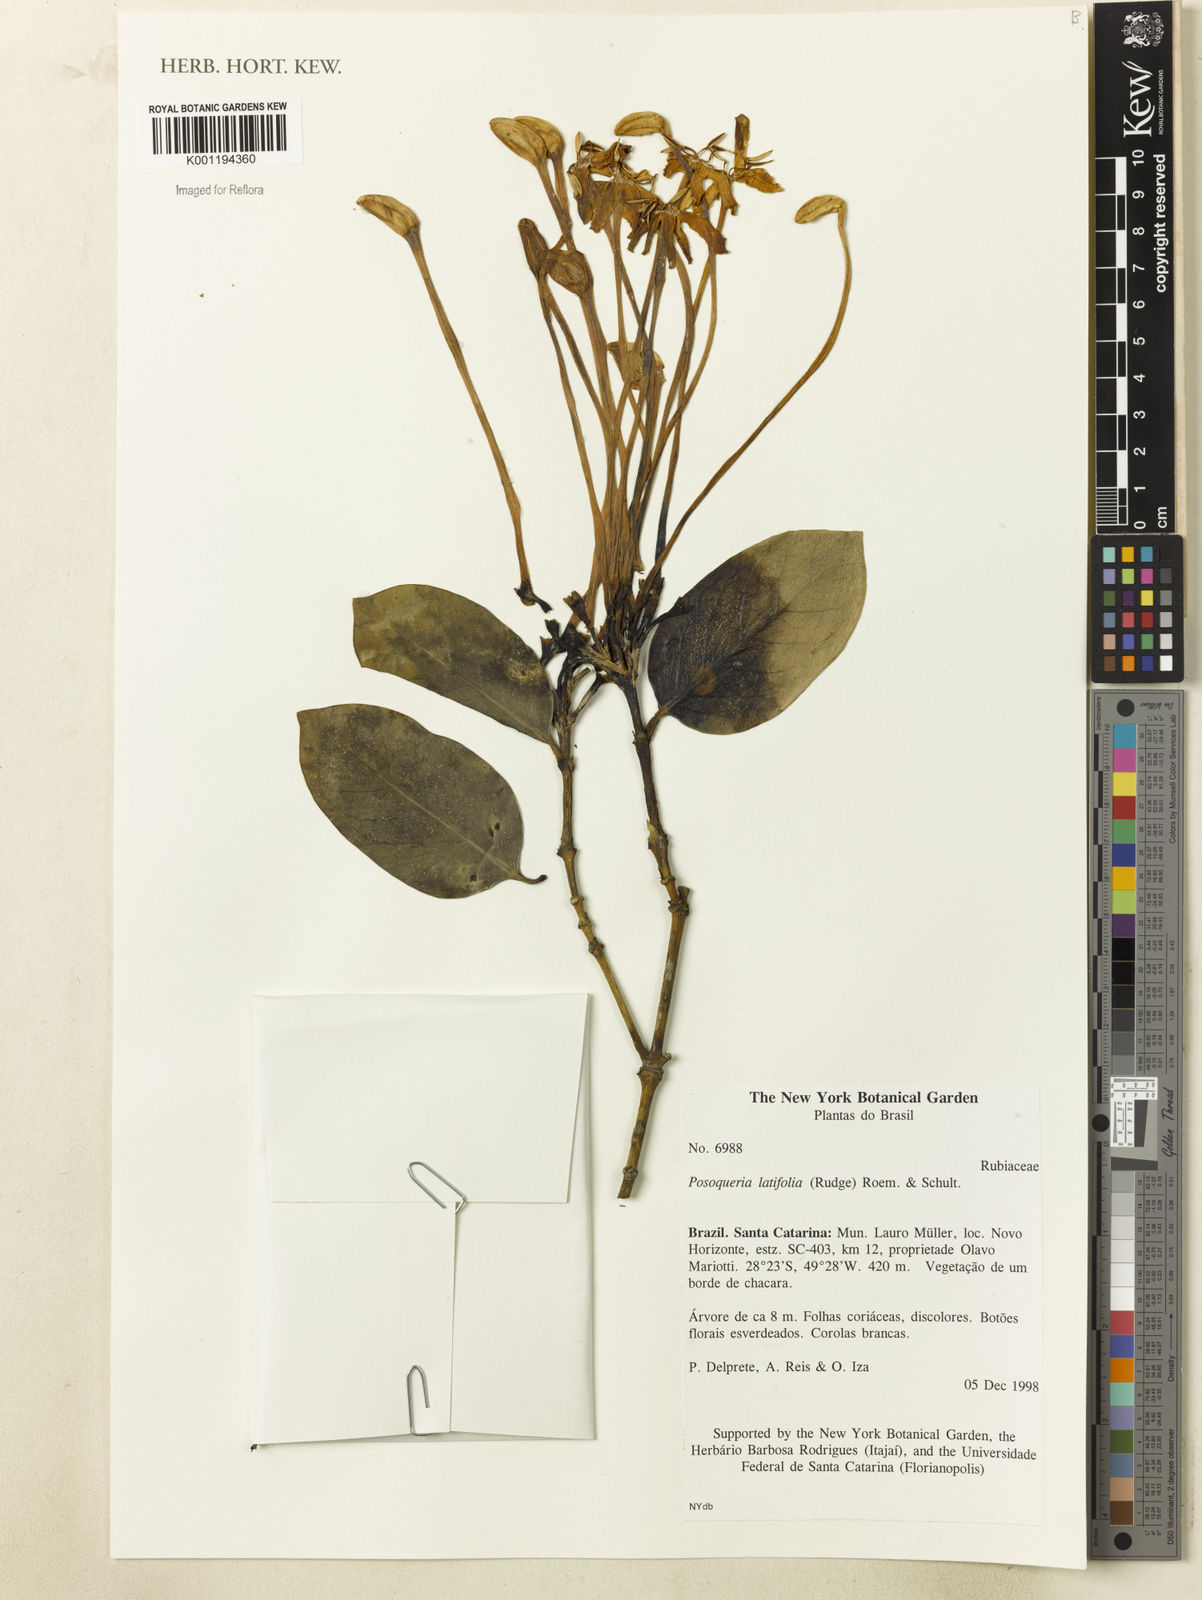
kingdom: Plantae
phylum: Tracheophyta
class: Magnoliopsida
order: Gentianales
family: Rubiaceae
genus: Posoqueria
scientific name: Posoqueria latifolia
